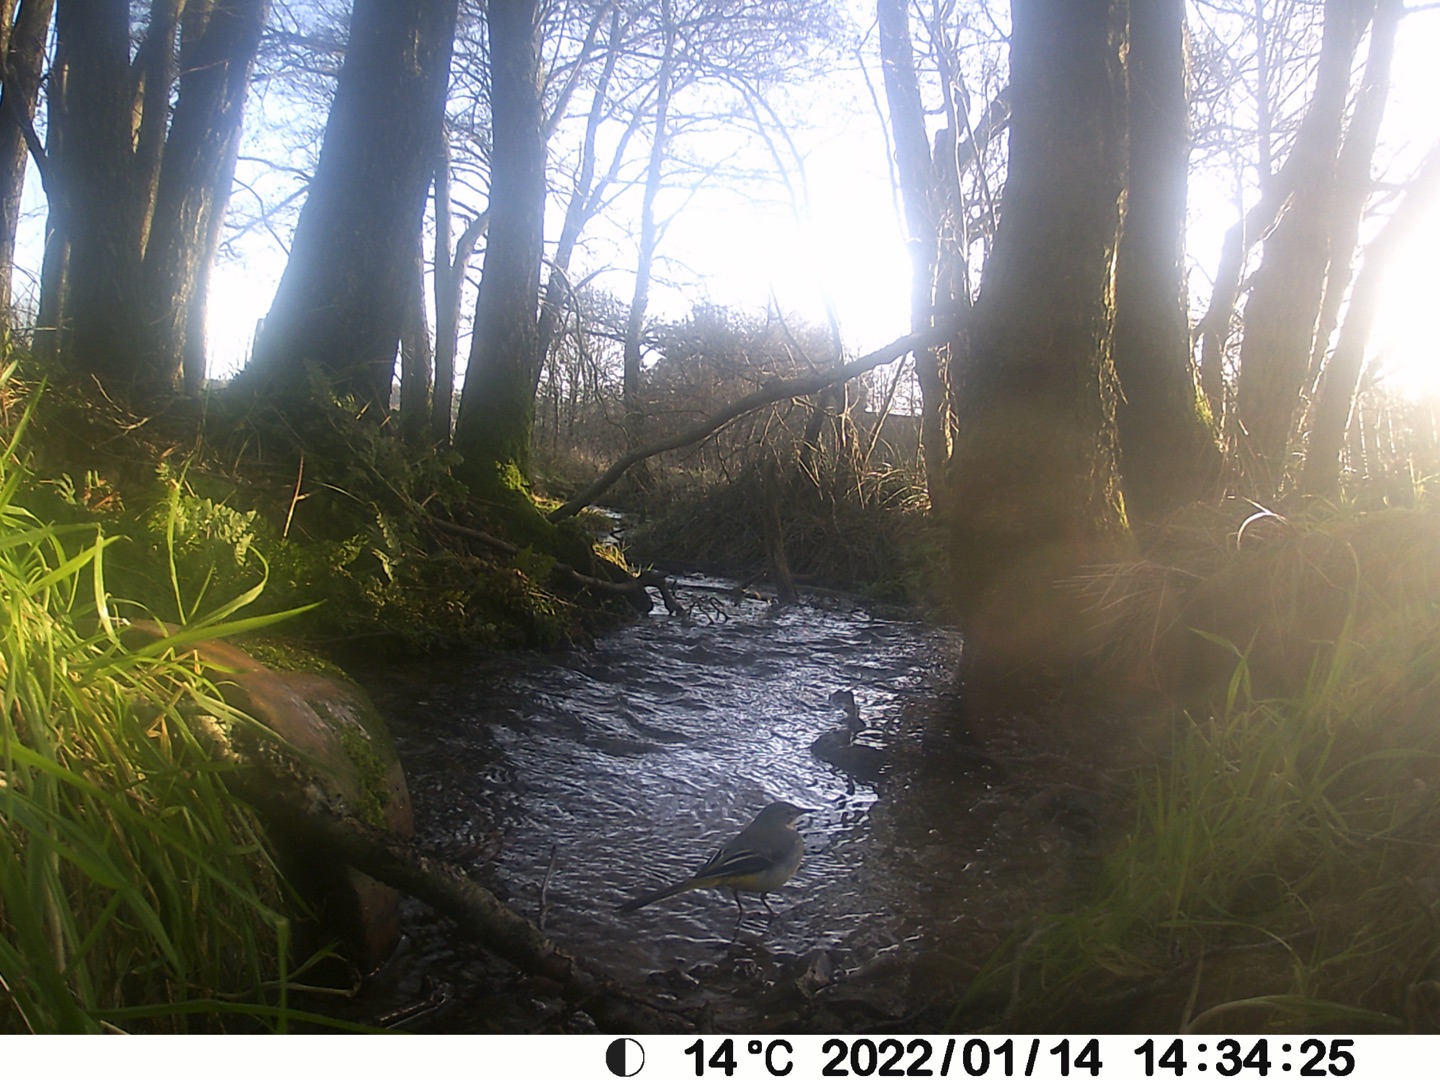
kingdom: Animalia
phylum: Chordata
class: Aves
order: Passeriformes
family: Motacillidae
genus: Motacilla
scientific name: Motacilla cinerea
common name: Bjergvipstjert
